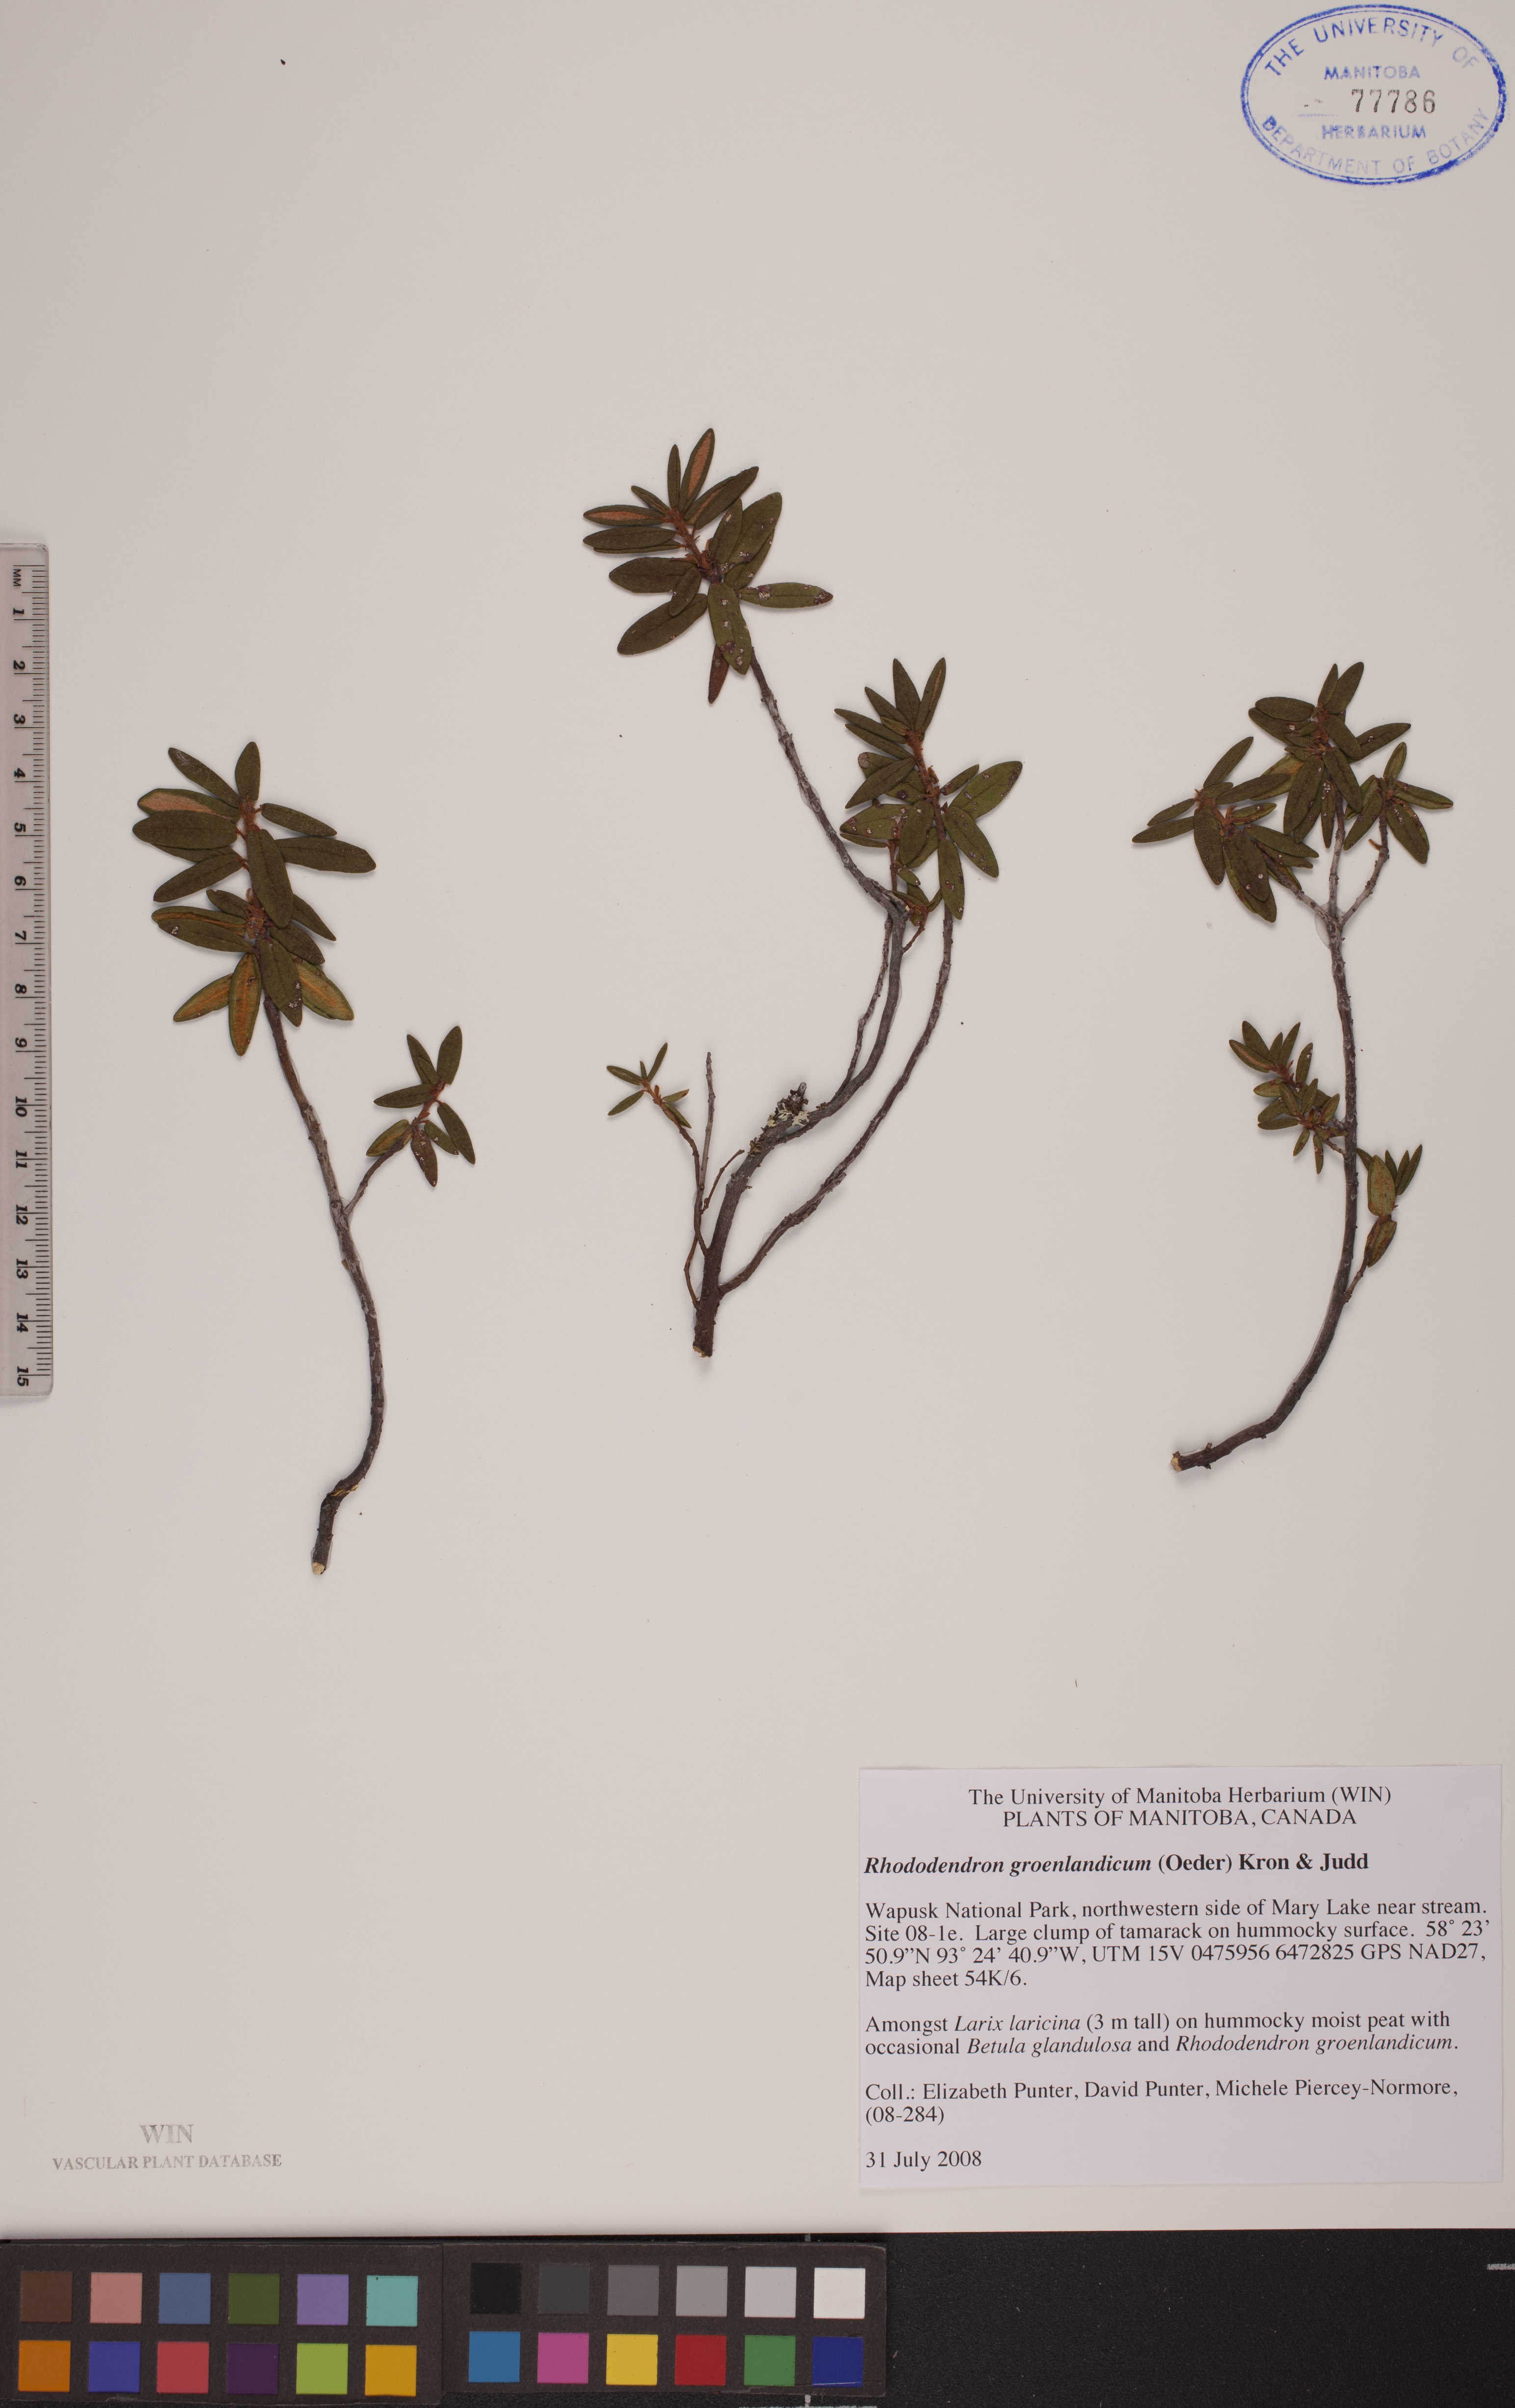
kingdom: Plantae
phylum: Tracheophyta
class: Magnoliopsida
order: Ericales
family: Ericaceae
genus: Rhododendron
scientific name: Rhododendron groenlandicum
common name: Bog labrador tea
